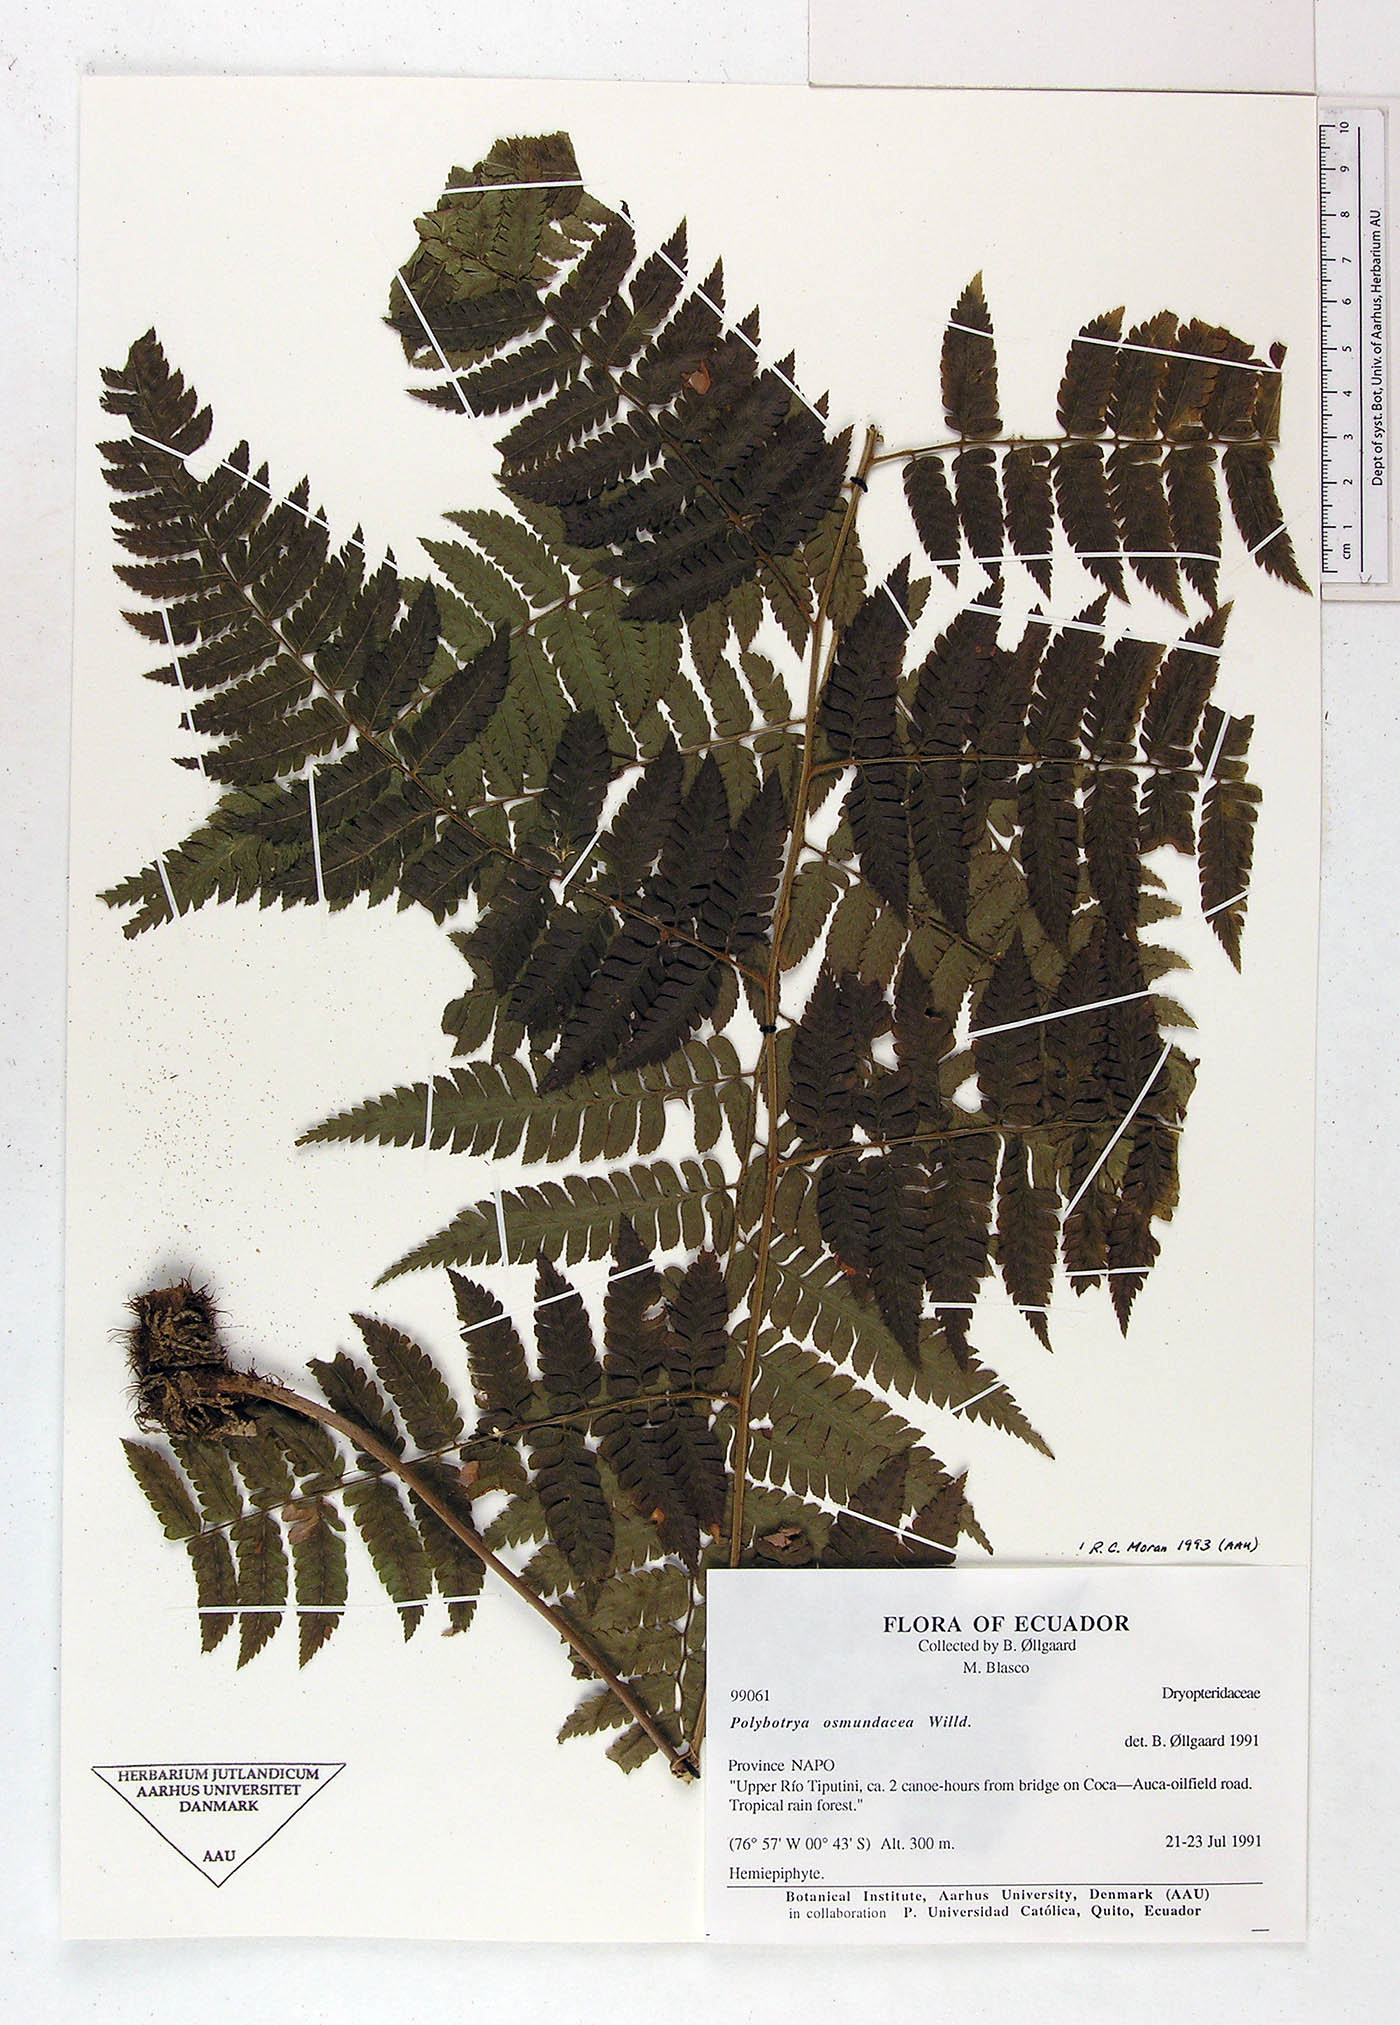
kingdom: Plantae
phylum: Tracheophyta
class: Polypodiopsida
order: Polypodiales
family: Dryopteridaceae
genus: Polybotrya
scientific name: Polybotrya osmundacea
